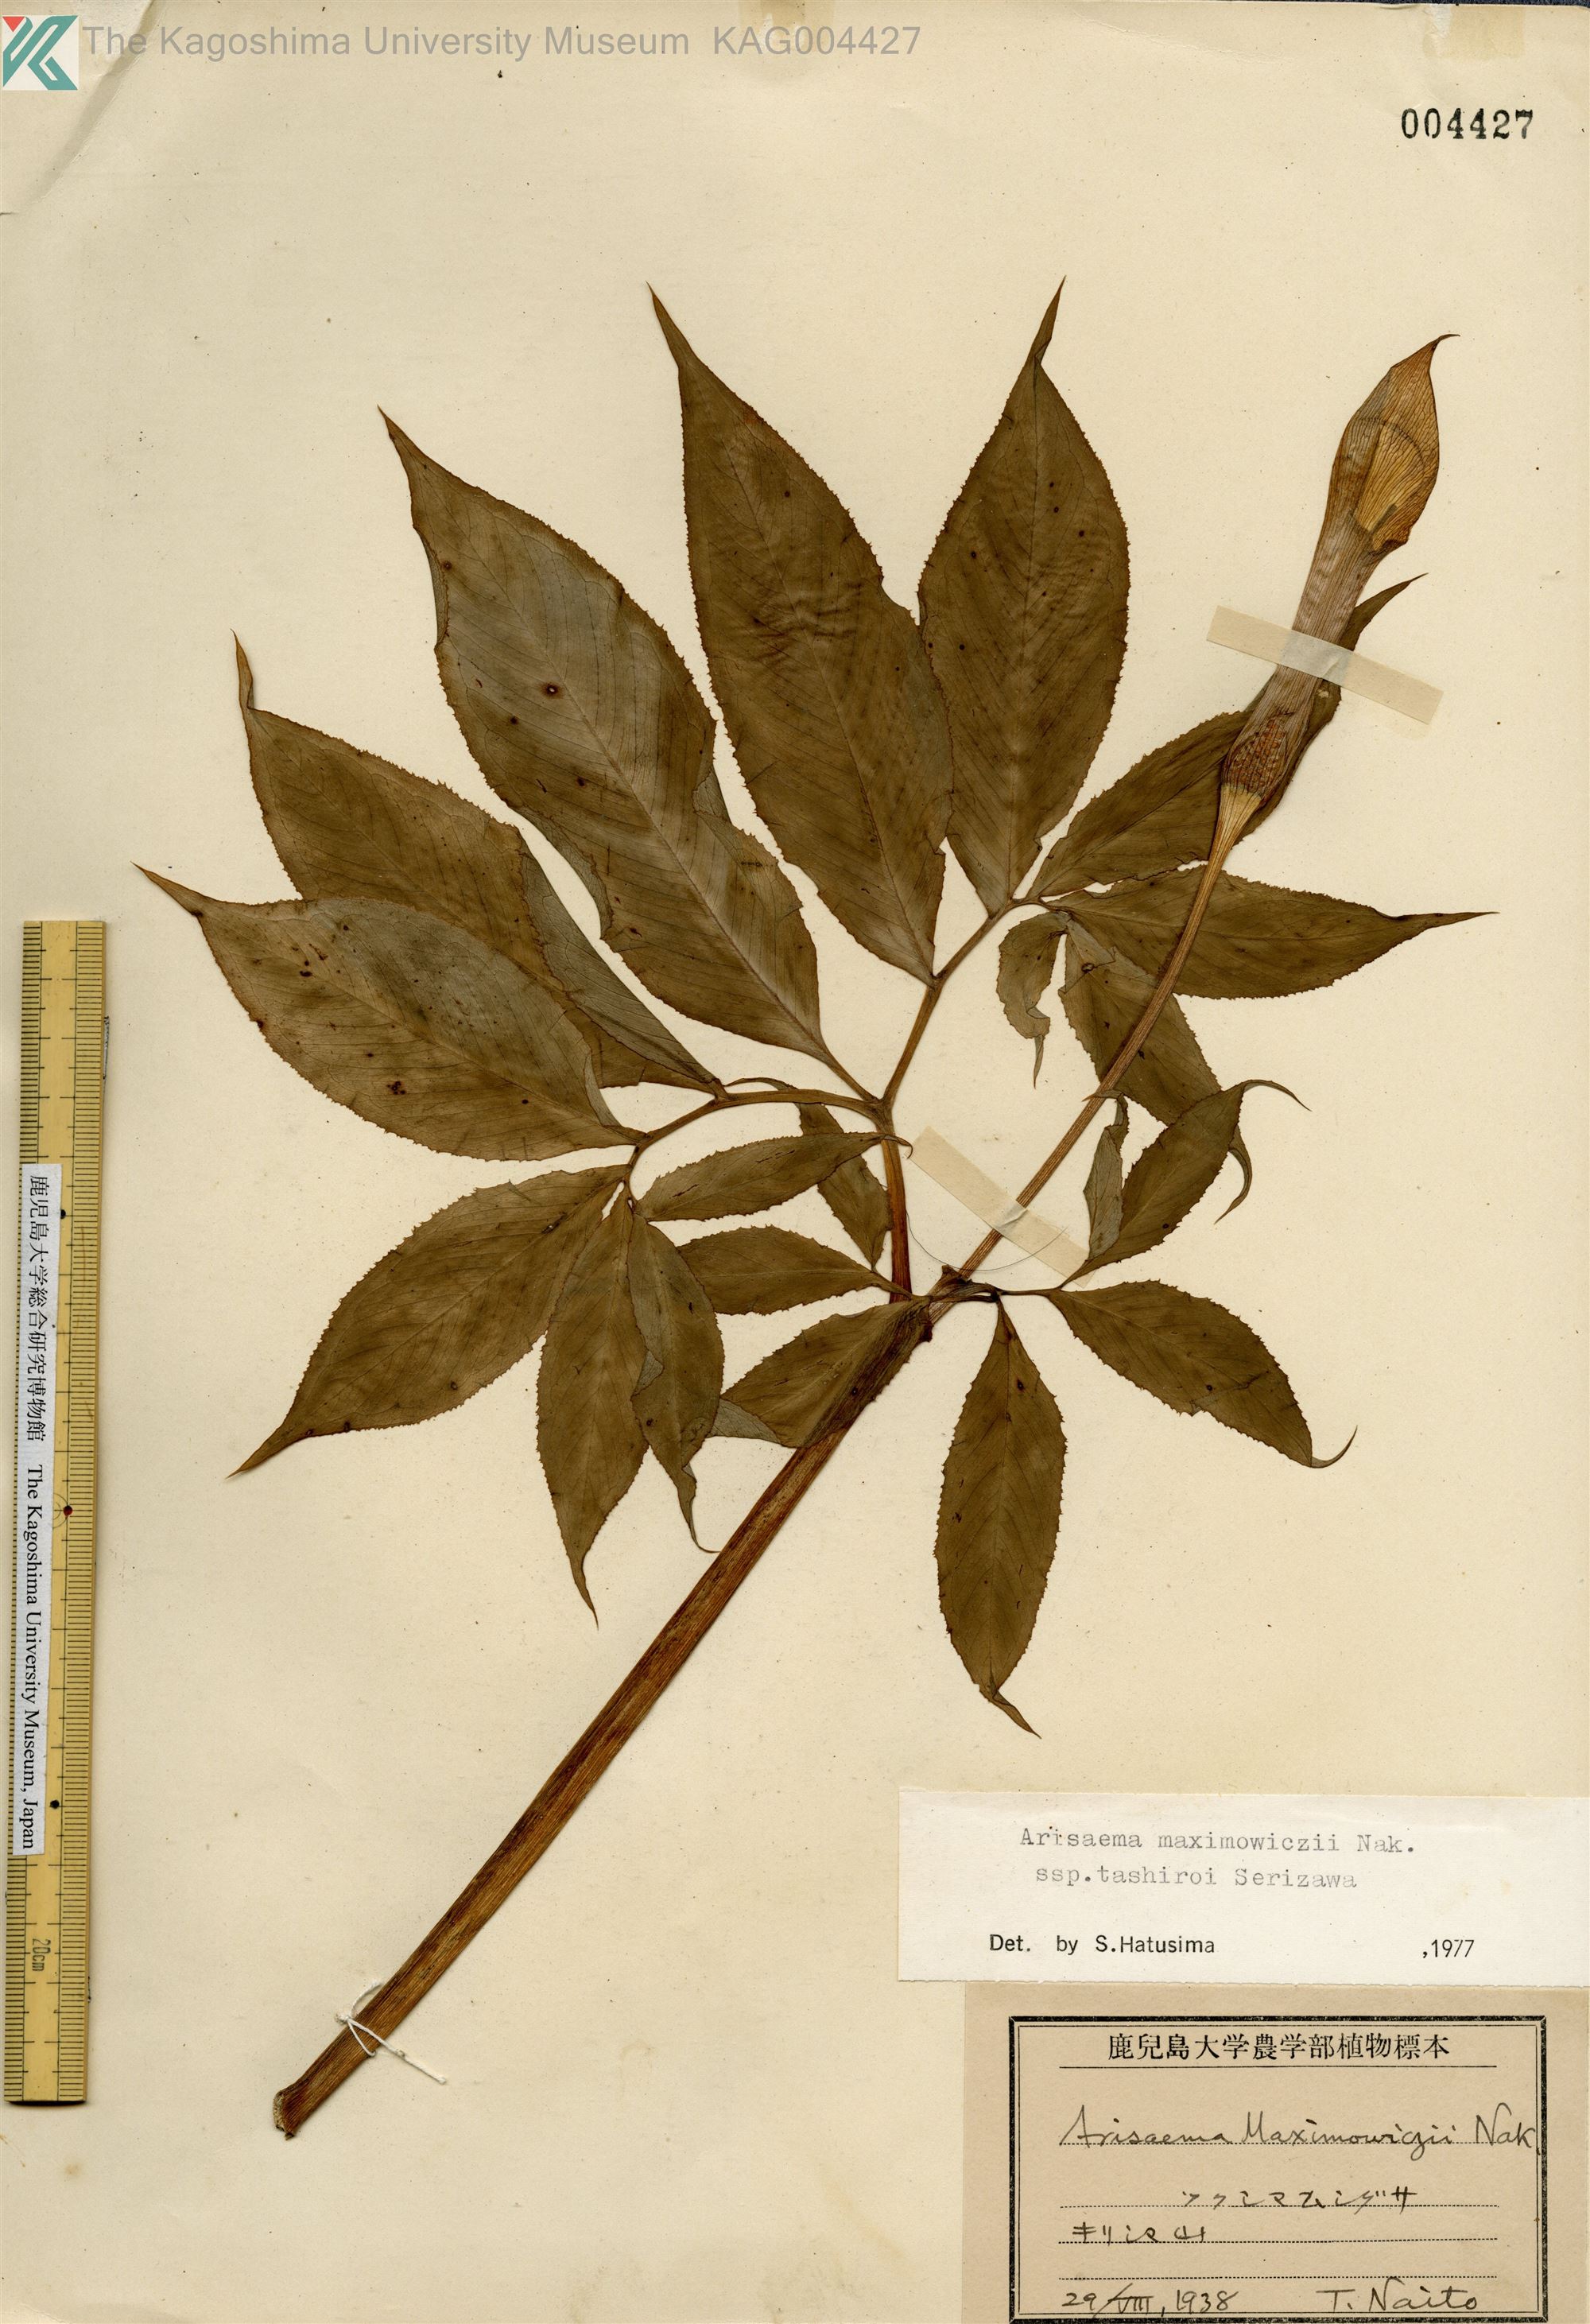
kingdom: Plantae
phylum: Tracheophyta
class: Liliopsida
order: Alismatales
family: Araceae
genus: Arisaema
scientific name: Arisaema tashiroi
